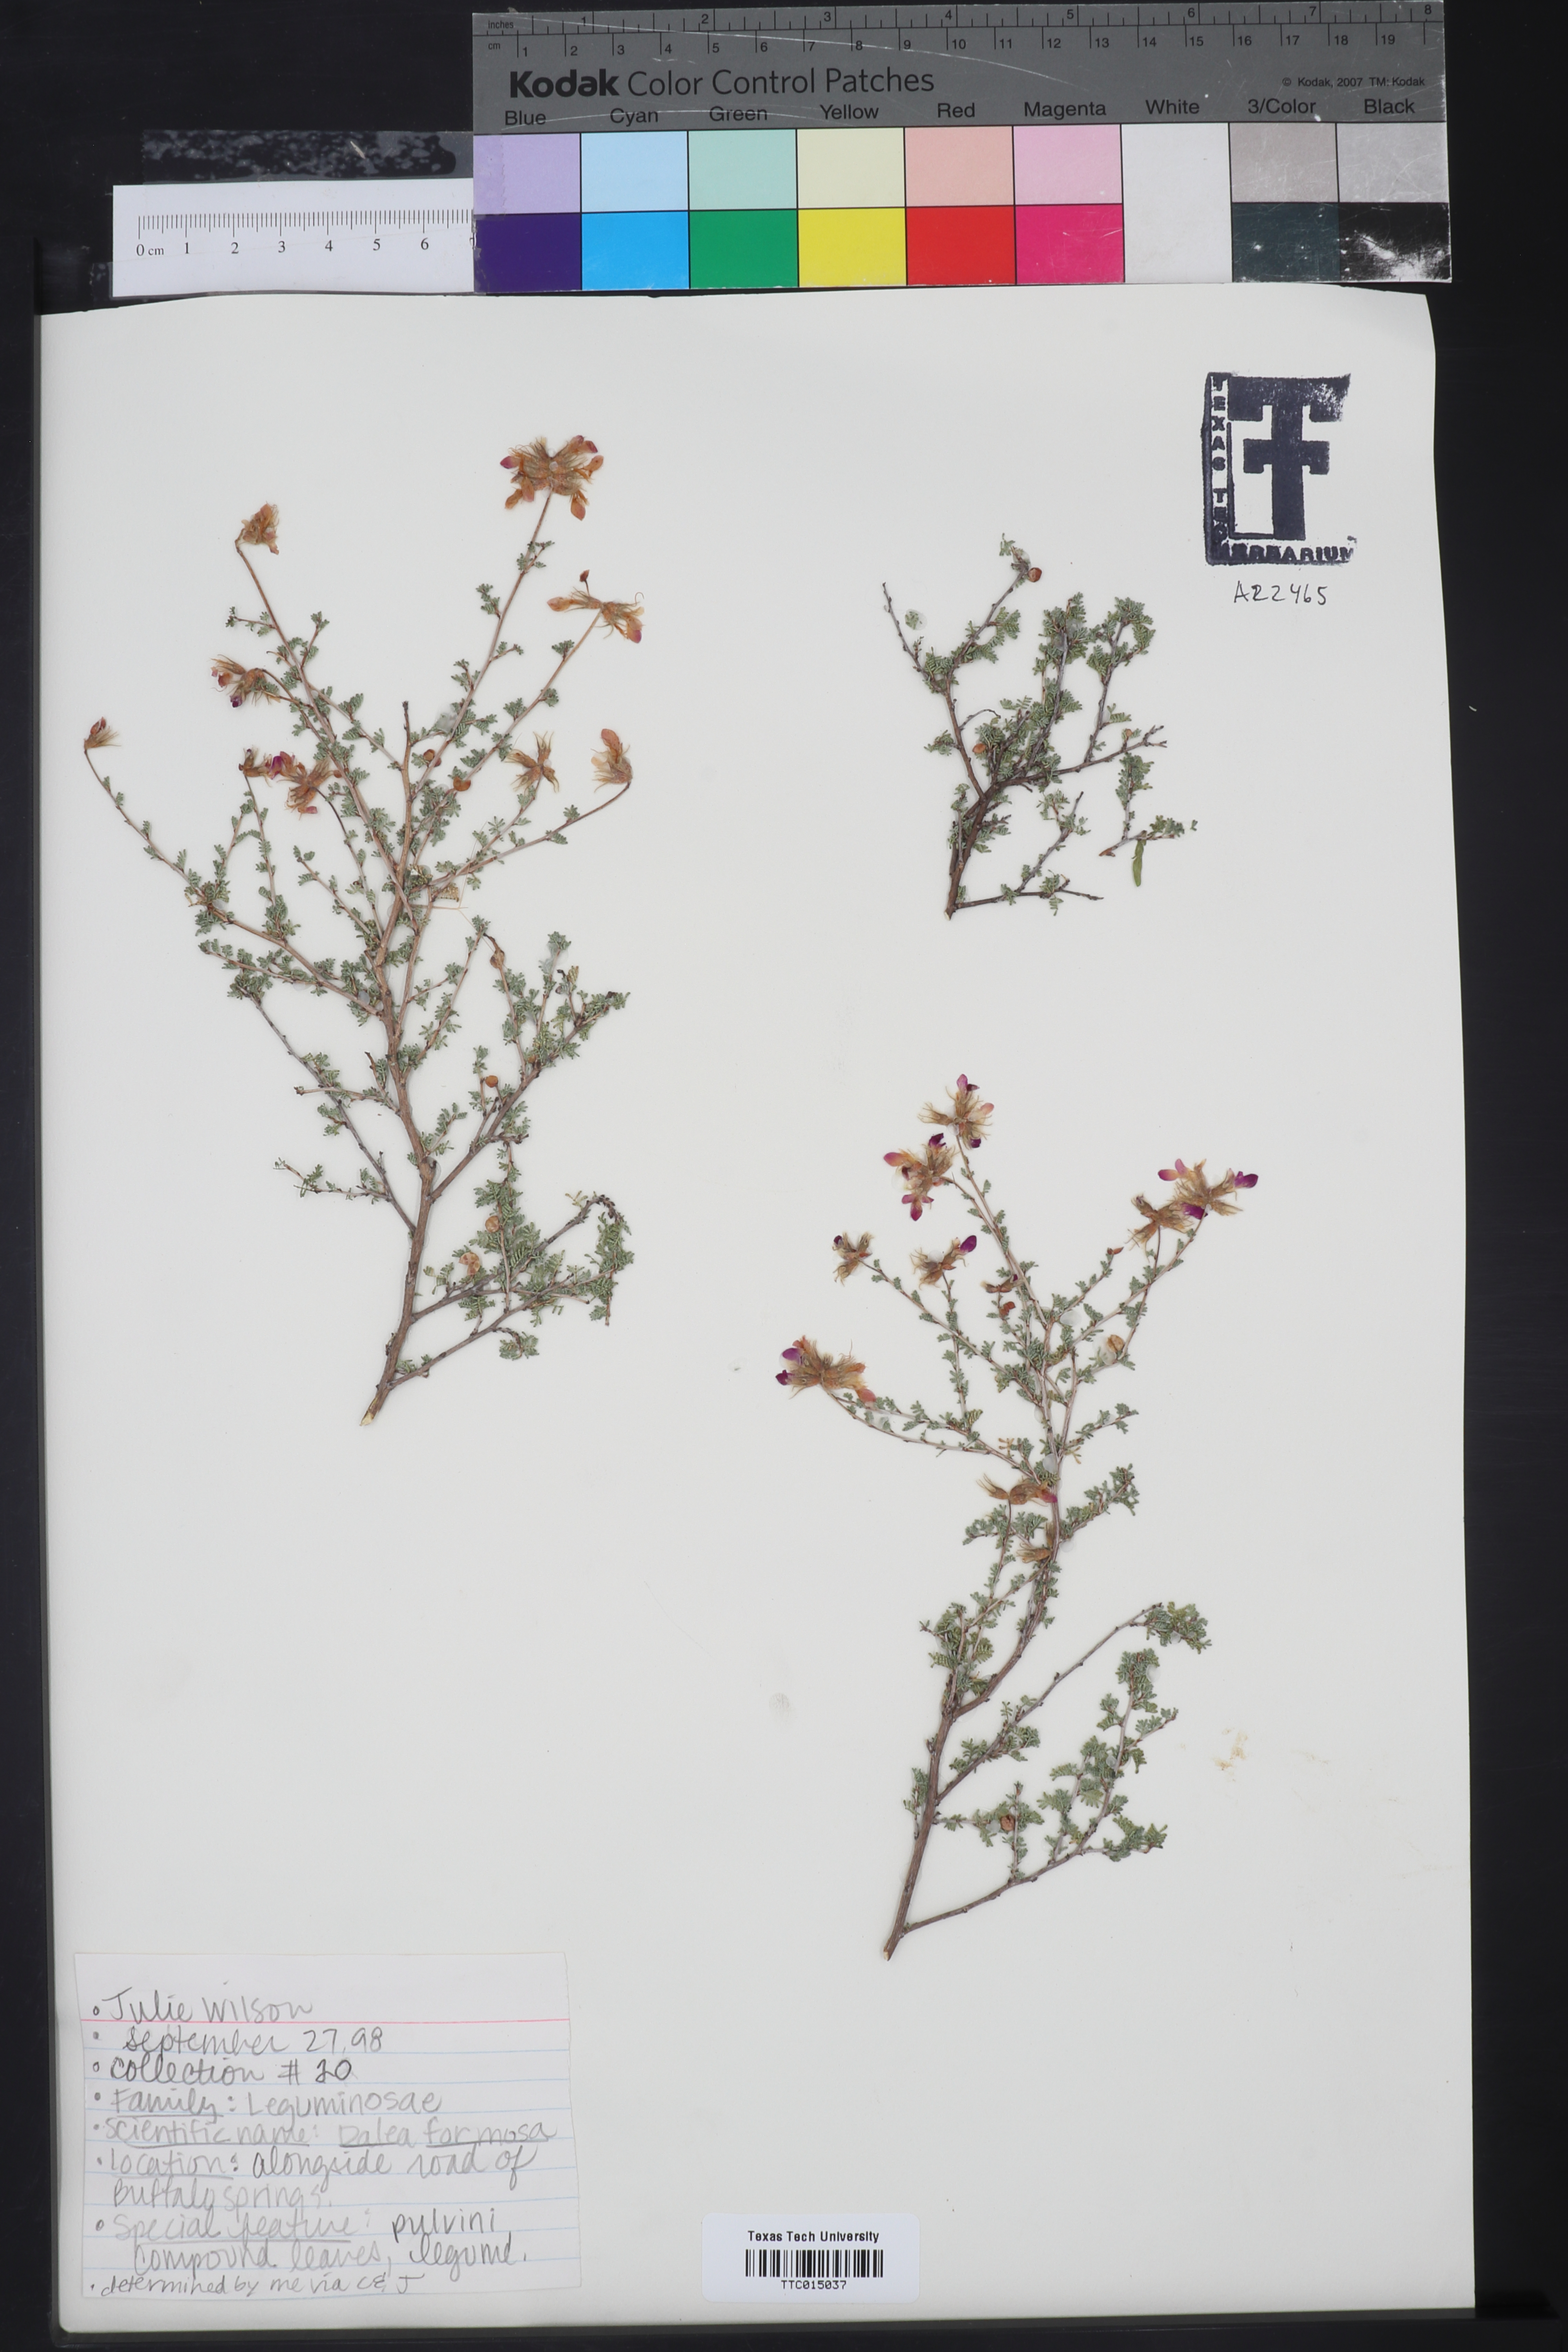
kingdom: Plantae
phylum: Tracheophyta
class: Magnoliopsida
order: Fabales
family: Fabaceae
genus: Dalea
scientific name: Dalea formosa
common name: Feather-plume dalea
